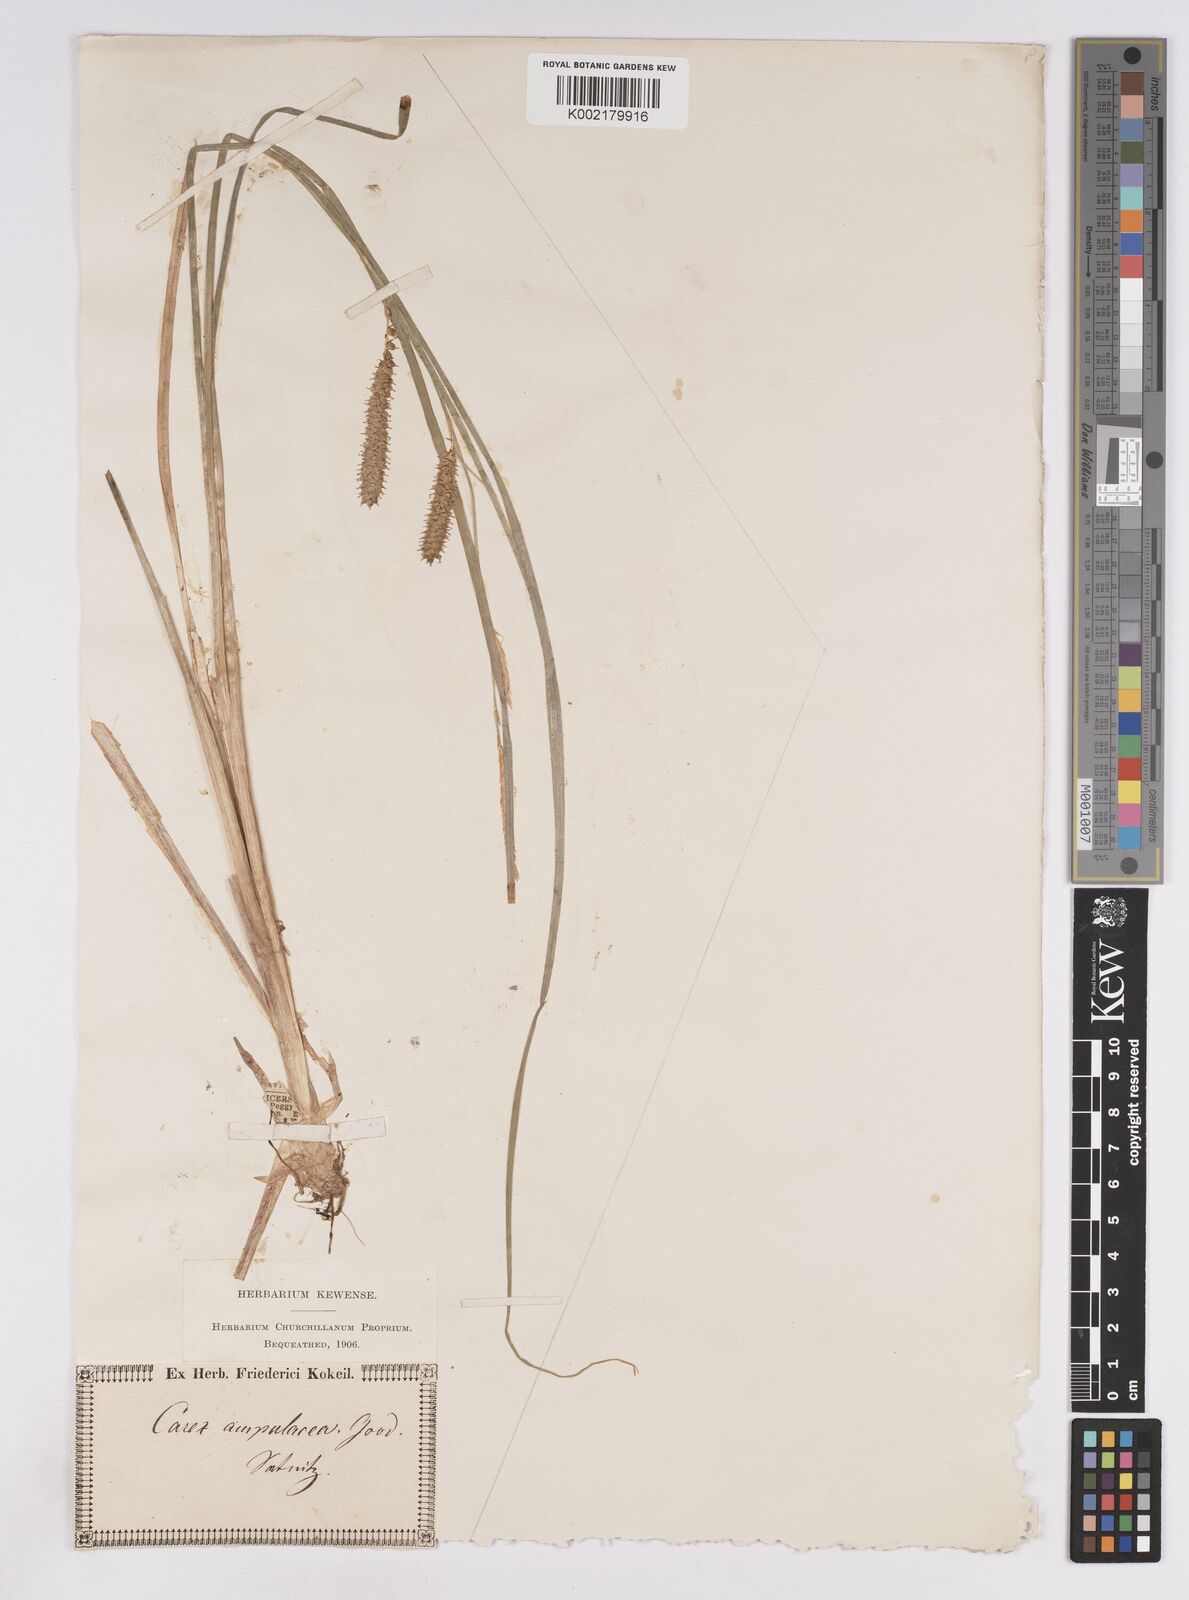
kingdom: Plantae
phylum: Tracheophyta
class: Liliopsida
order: Poales
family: Cyperaceae
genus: Carex
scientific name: Carex rostrata
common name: Bottle sedge
